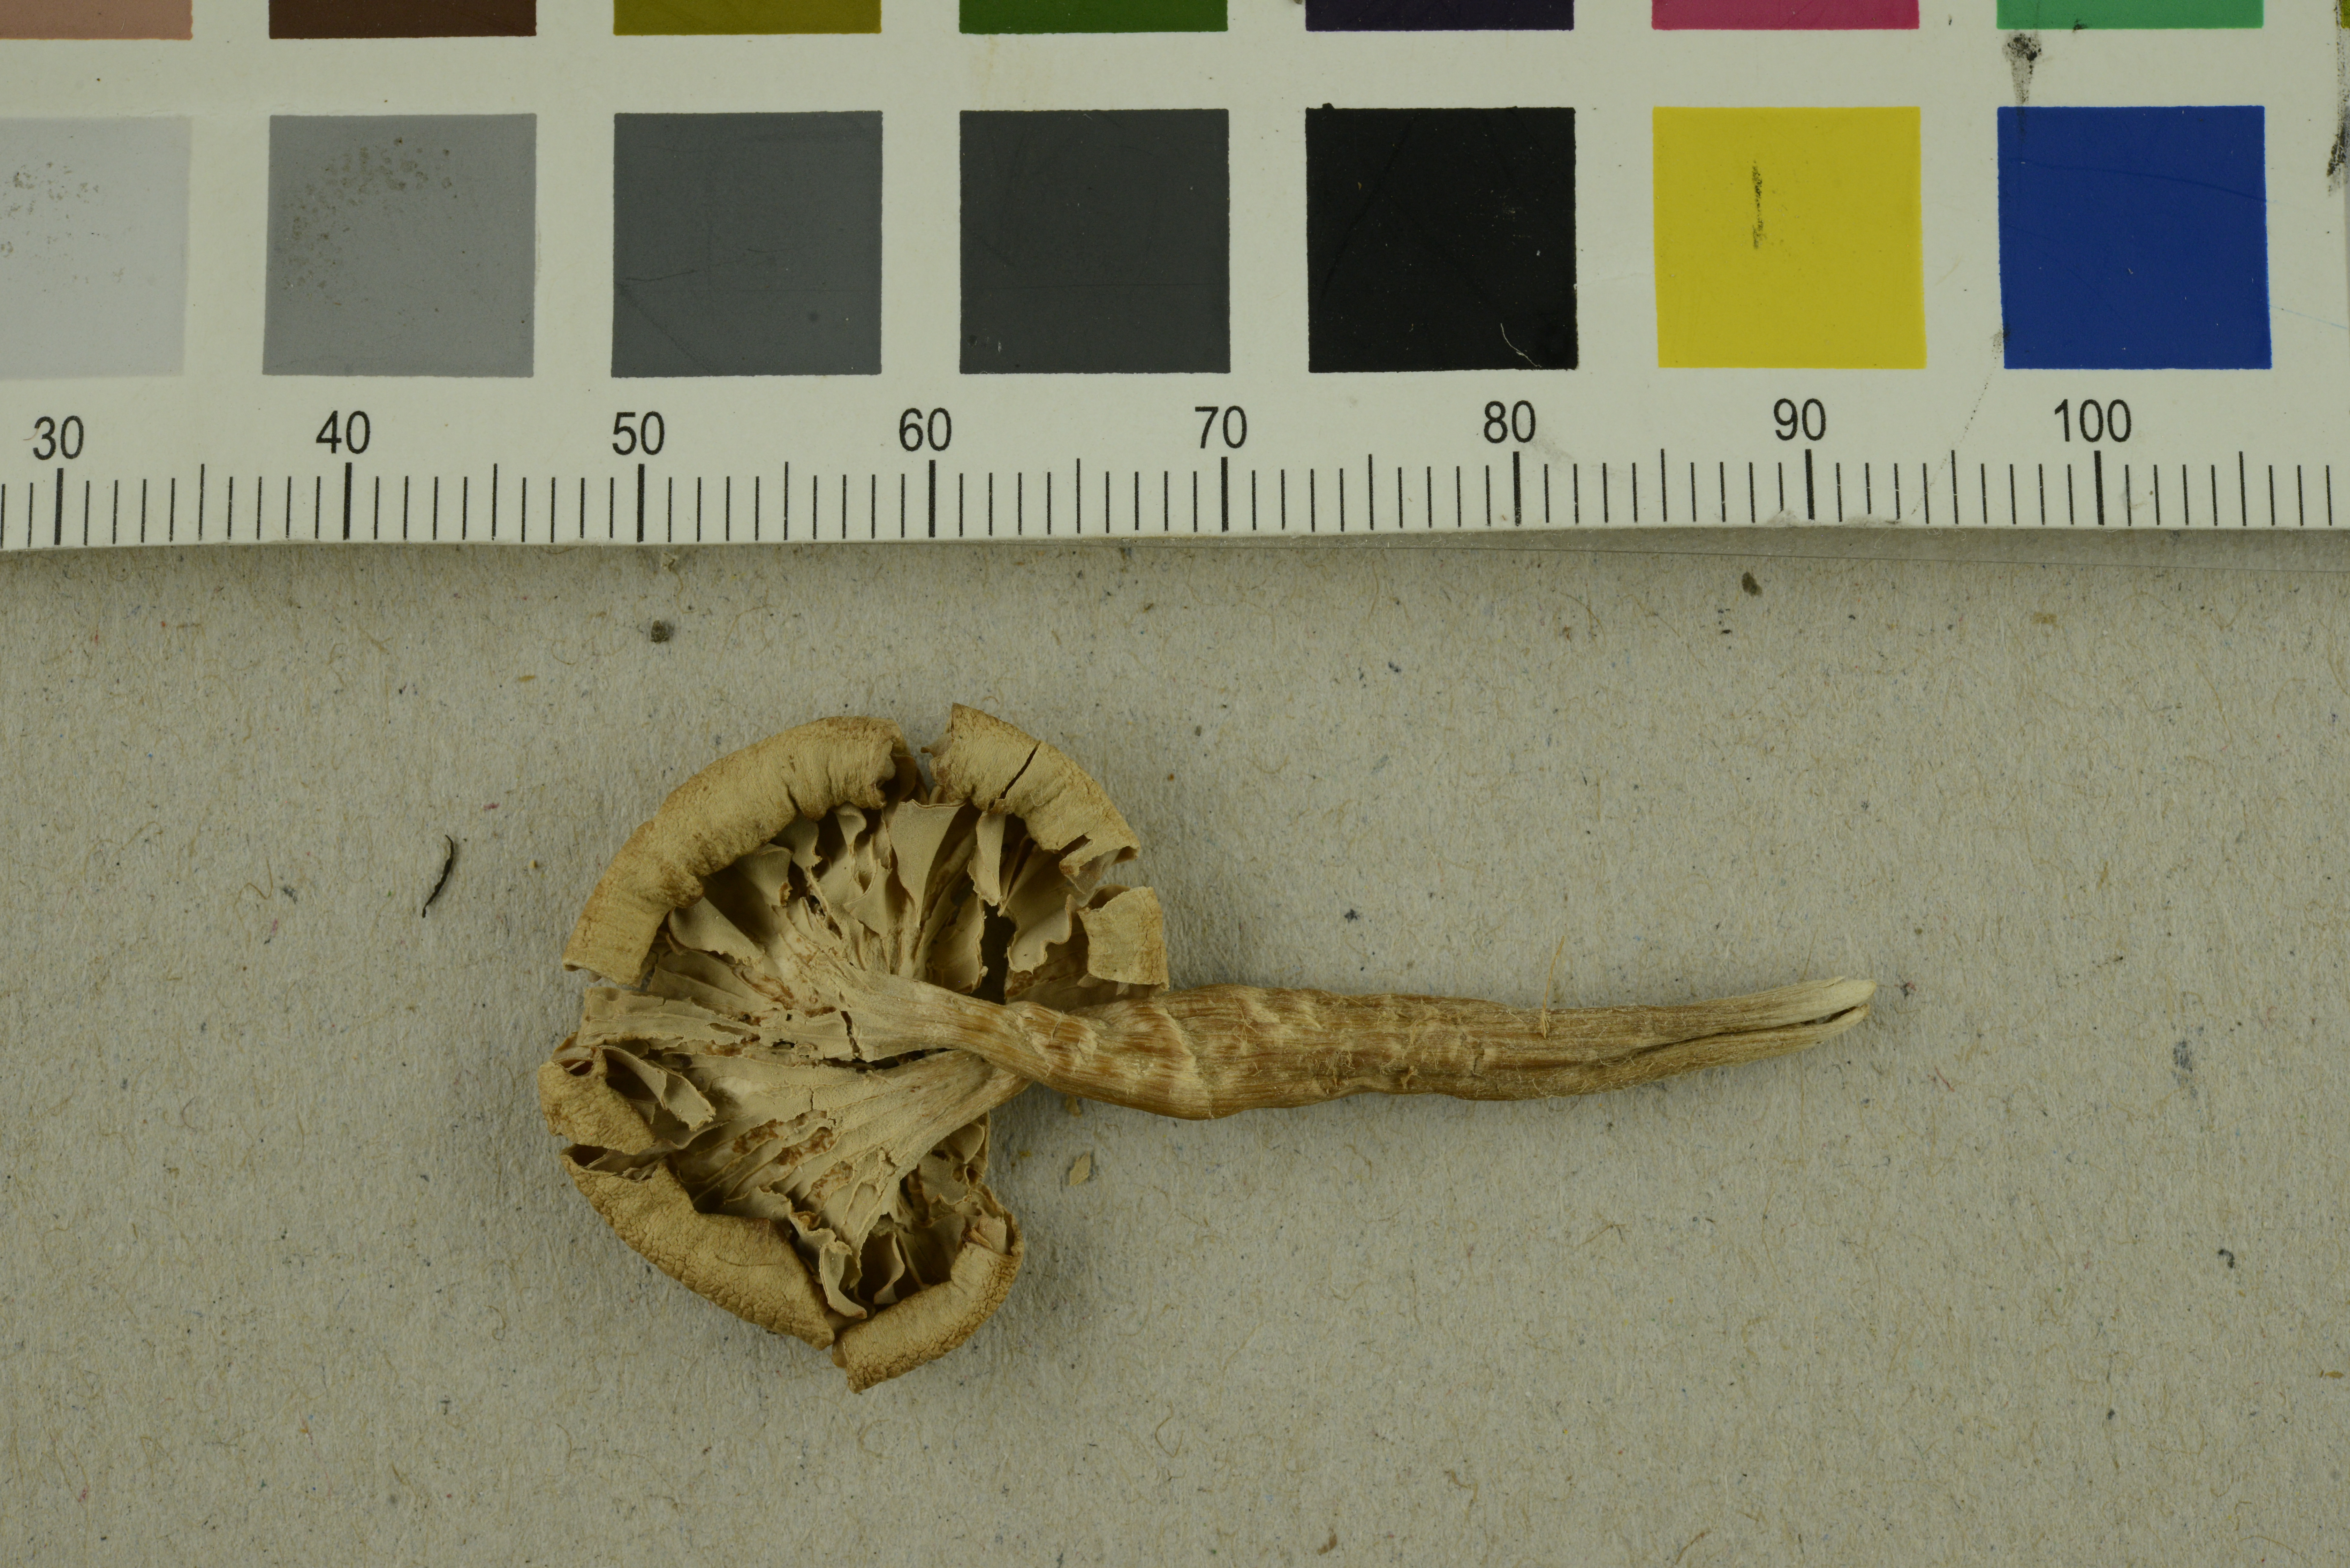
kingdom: Fungi
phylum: Basidiomycota
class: Agaricomycetes
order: Agaricales
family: Hydnangiaceae
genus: Laccaria
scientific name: Laccaria laccata
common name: Deceiver
